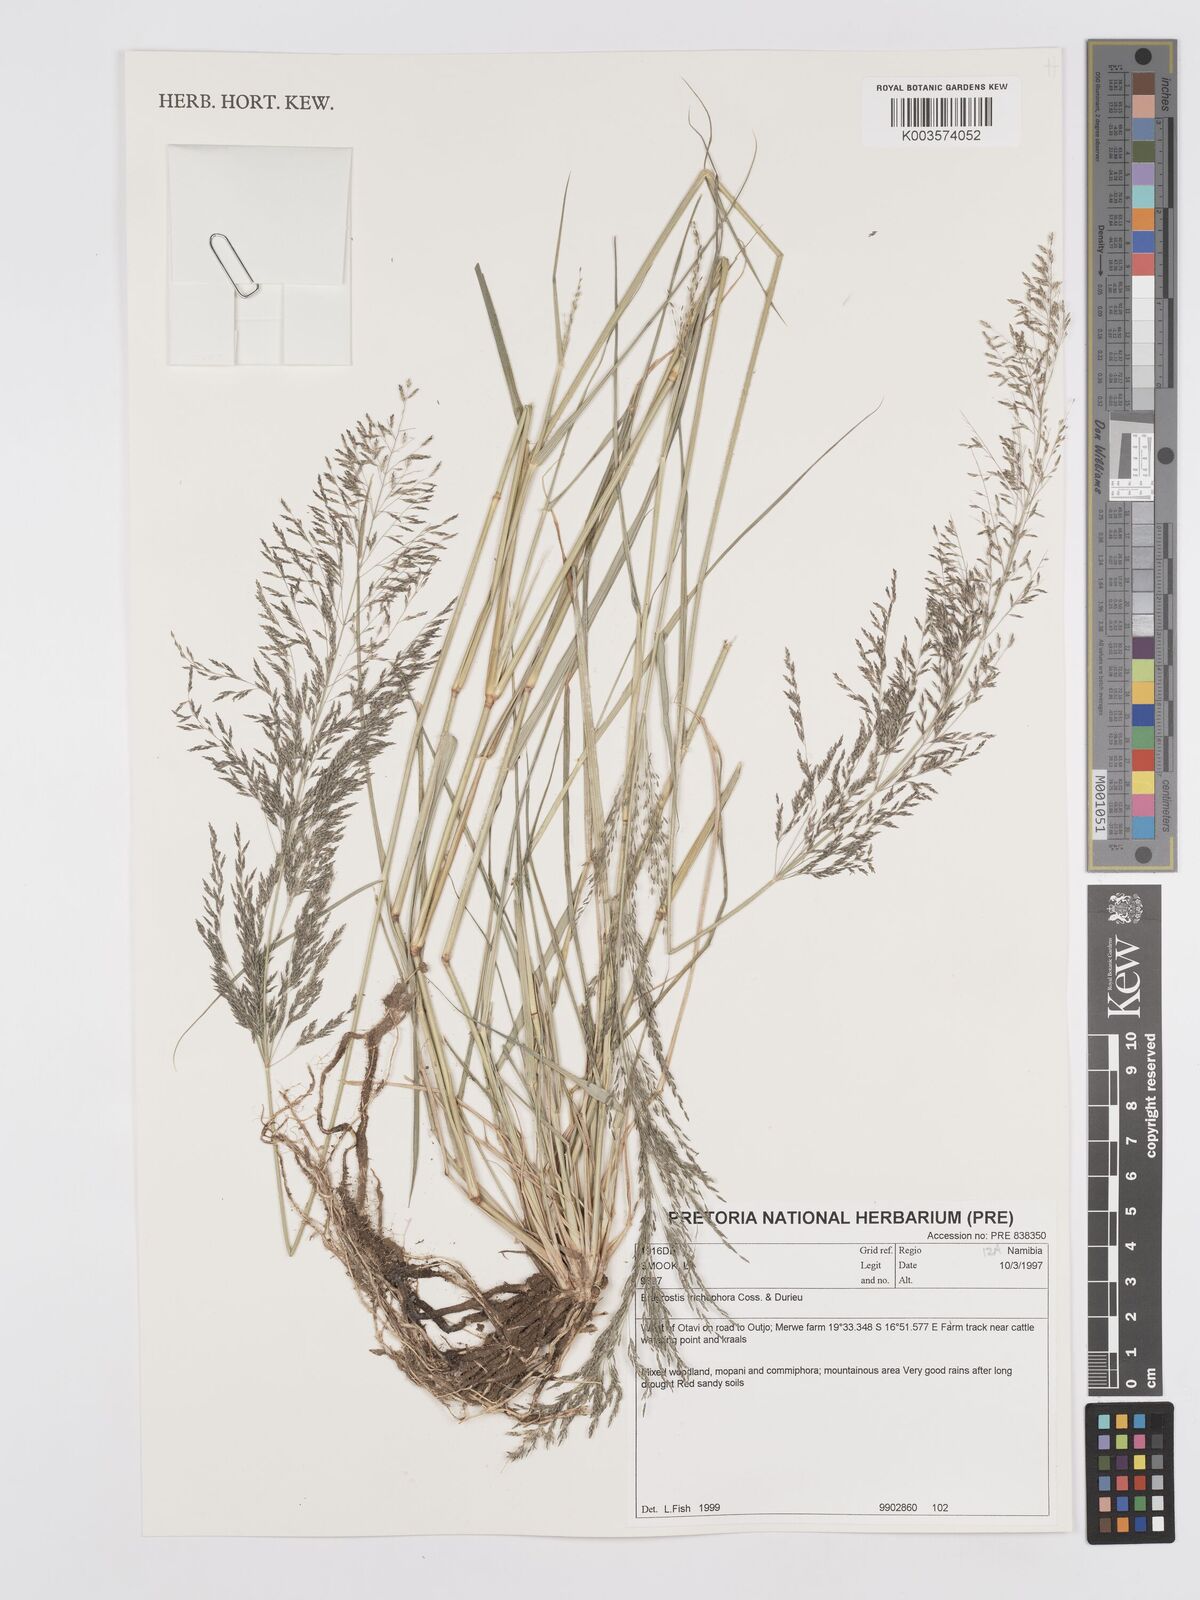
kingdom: Plantae
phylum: Tracheophyta
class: Liliopsida
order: Poales
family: Poaceae
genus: Eragrostis
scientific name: Eragrostis cylindriflora
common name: Cylinderflower lovegrass
